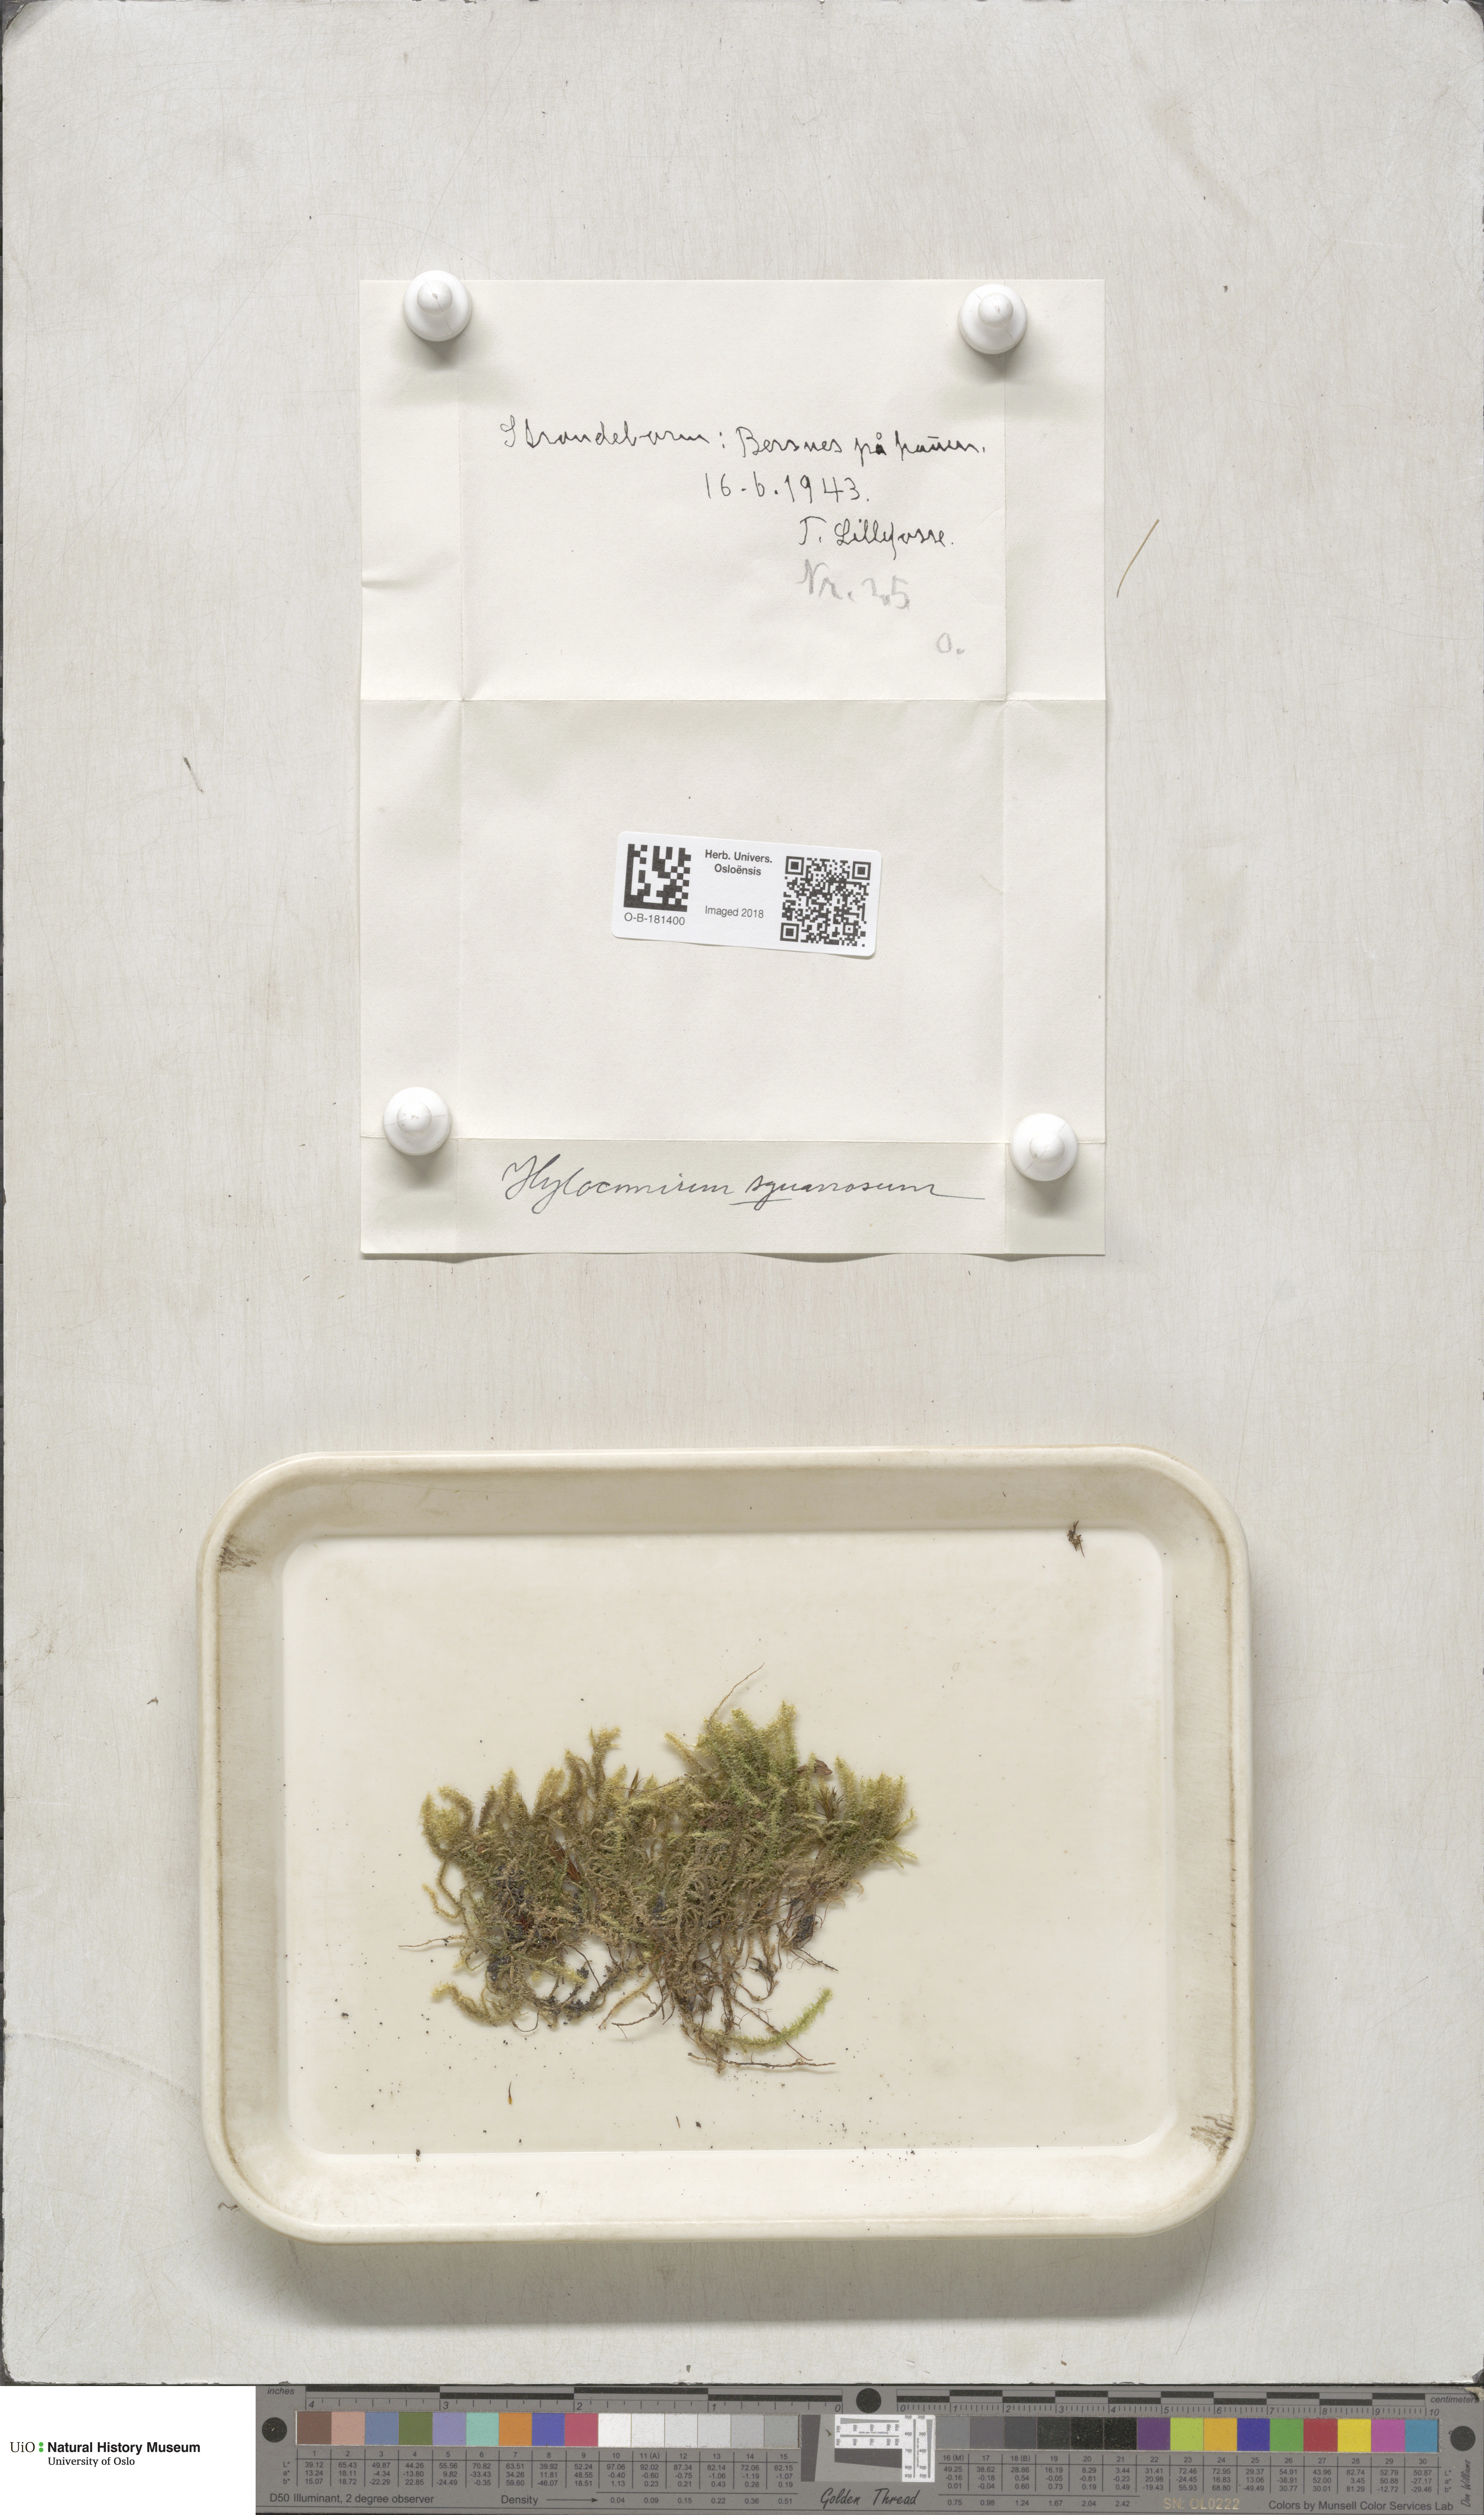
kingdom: Plantae
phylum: Bryophyta
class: Bryopsida
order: Hypnales
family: Hylocomiaceae
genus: Rhytidiadelphus
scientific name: Rhytidiadelphus squarrosus
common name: Springy turf-moss
